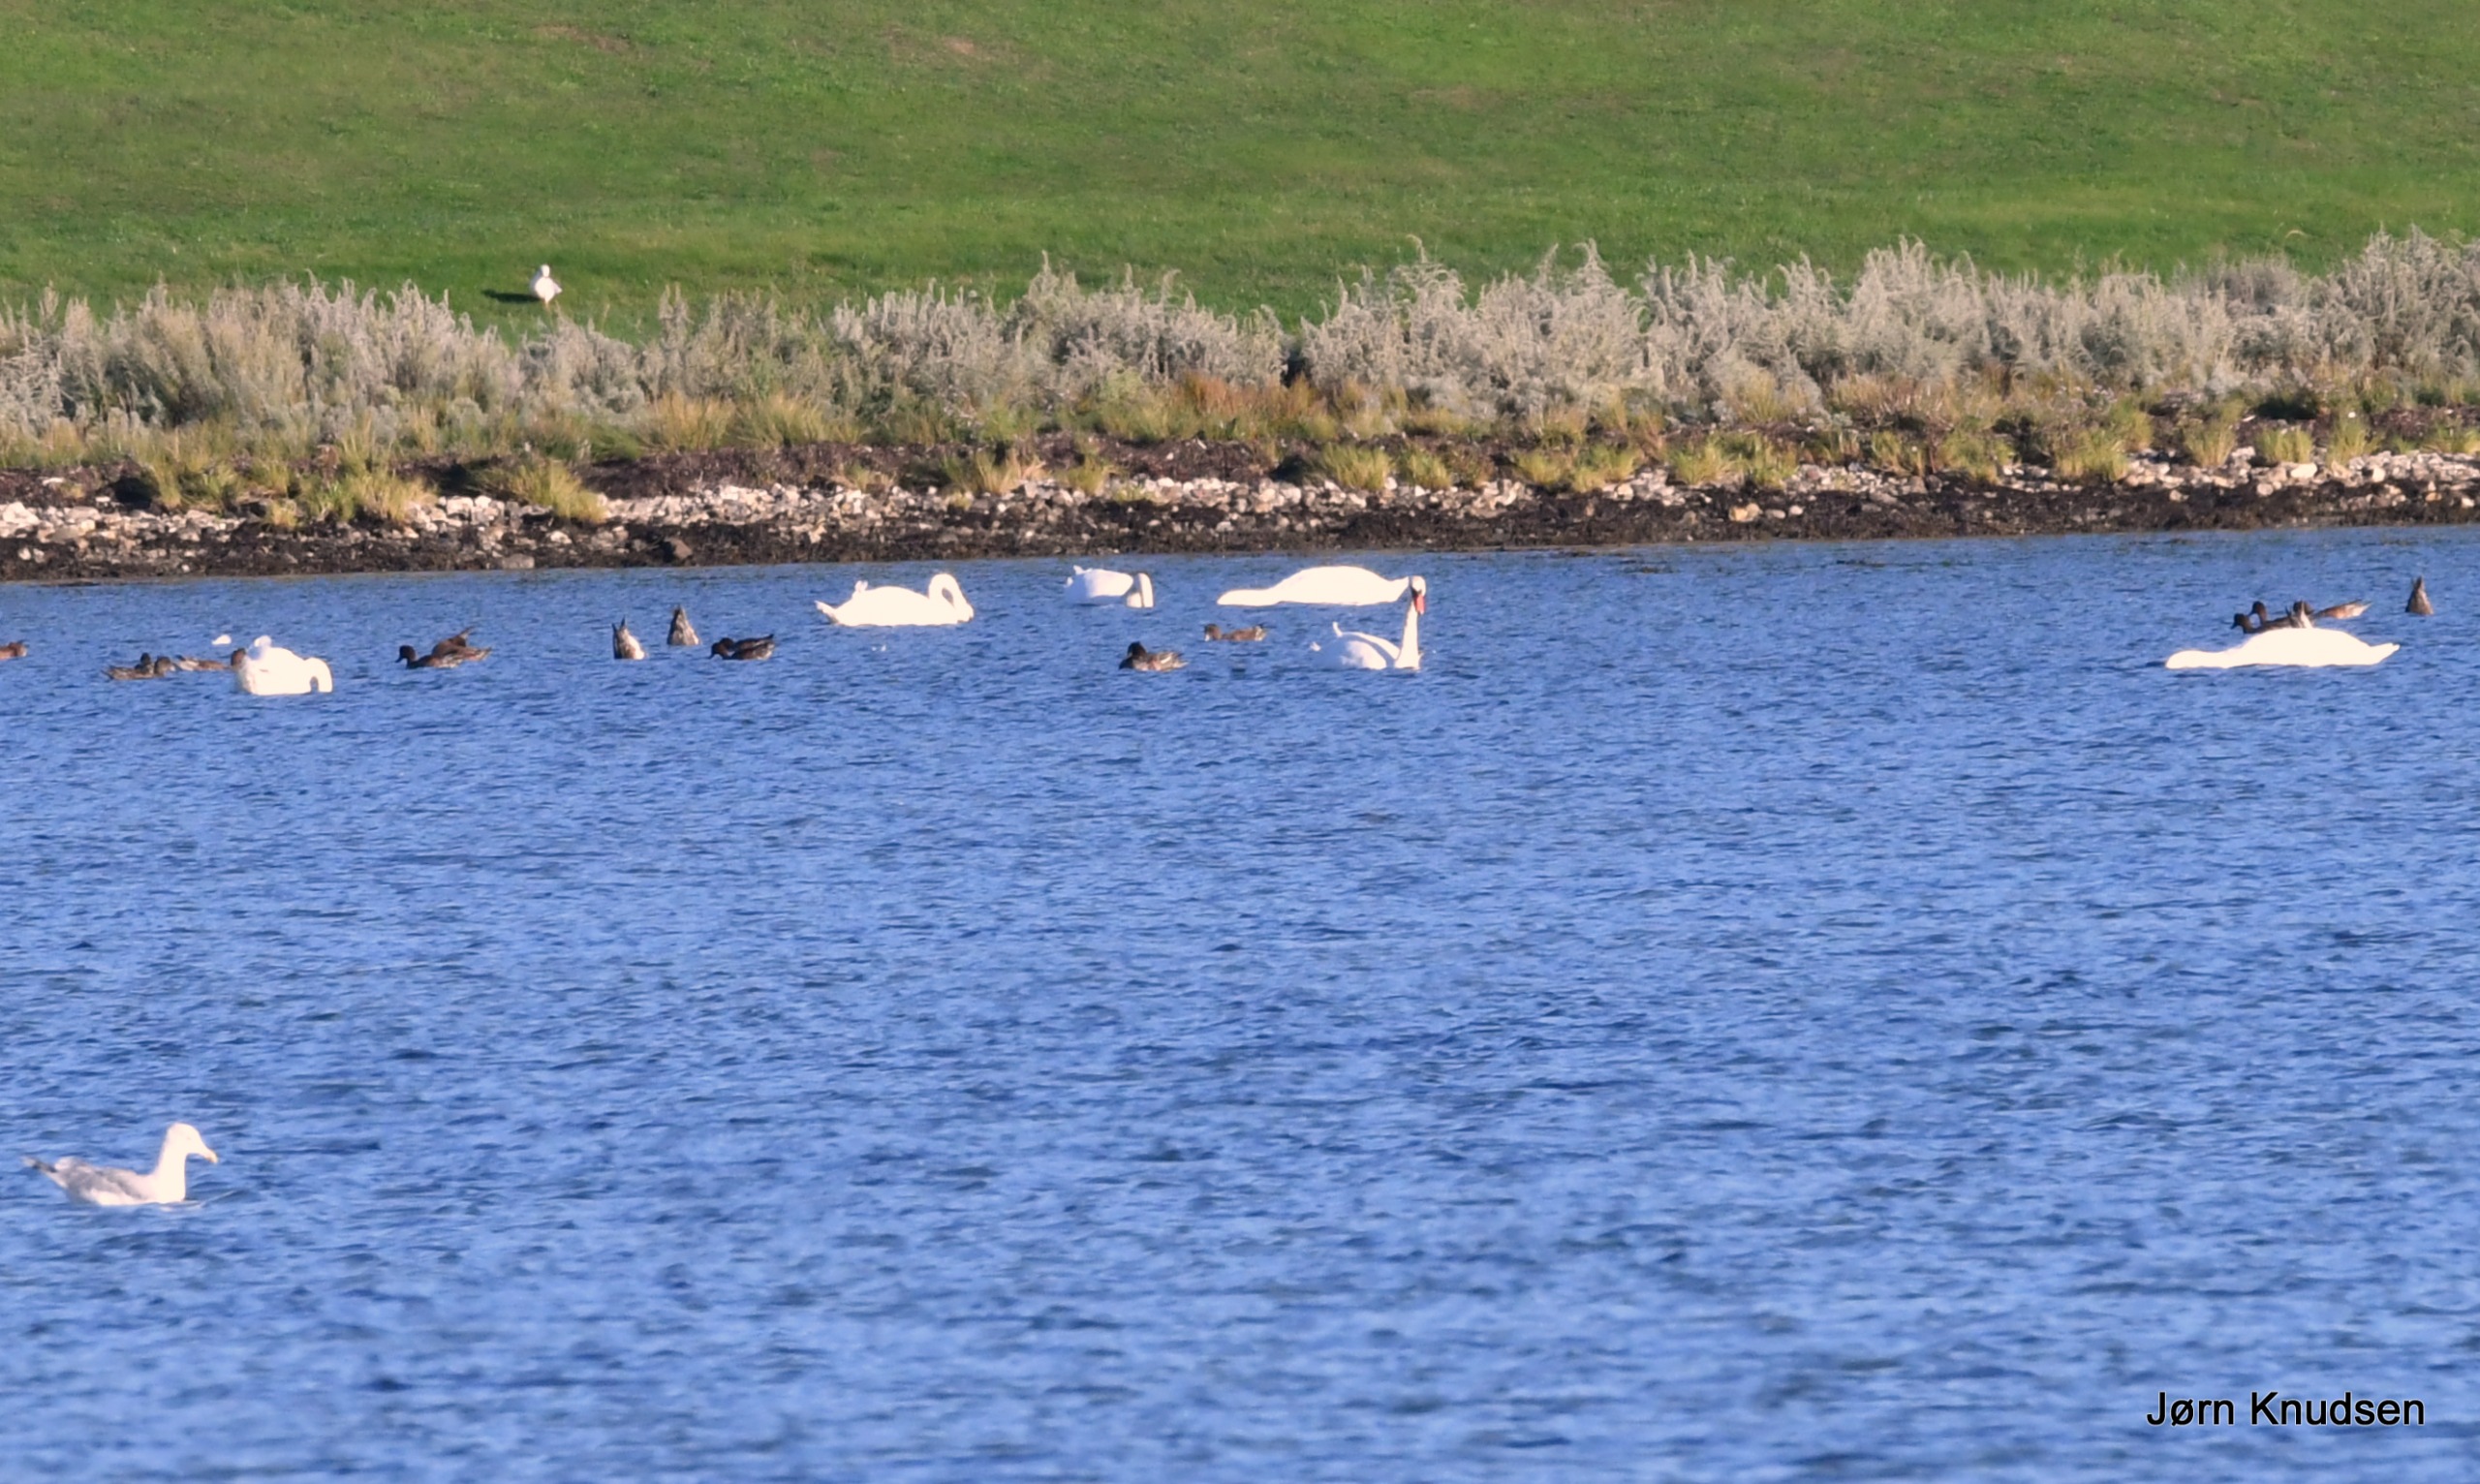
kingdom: Animalia
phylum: Chordata
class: Aves
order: Anseriformes
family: Anatidae
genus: Cygnus
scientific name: Cygnus olor
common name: Knopsvane
